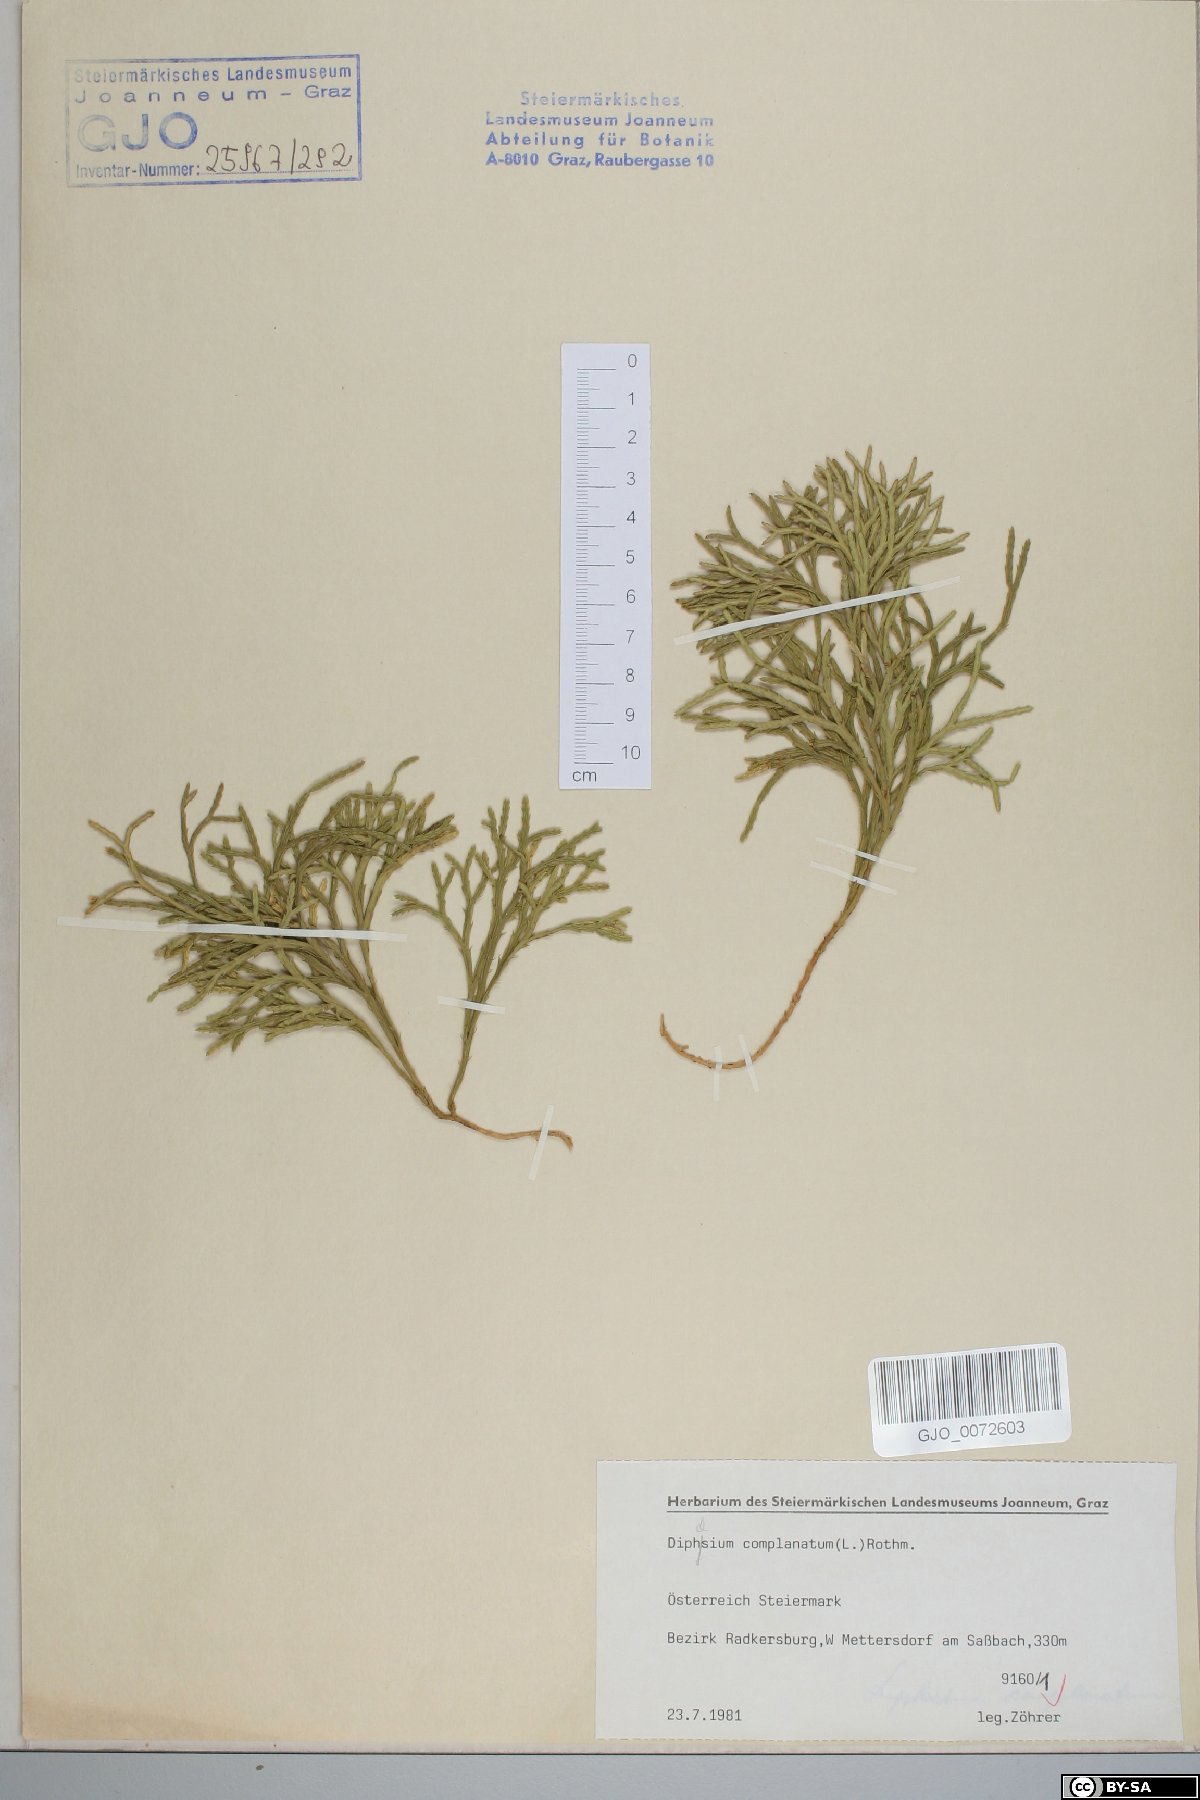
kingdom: Plantae
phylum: Tracheophyta
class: Lycopodiopsida
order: Lycopodiales
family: Lycopodiaceae
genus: Diphasiastrum
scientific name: Diphasiastrum complanatum
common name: Northern running-pine
